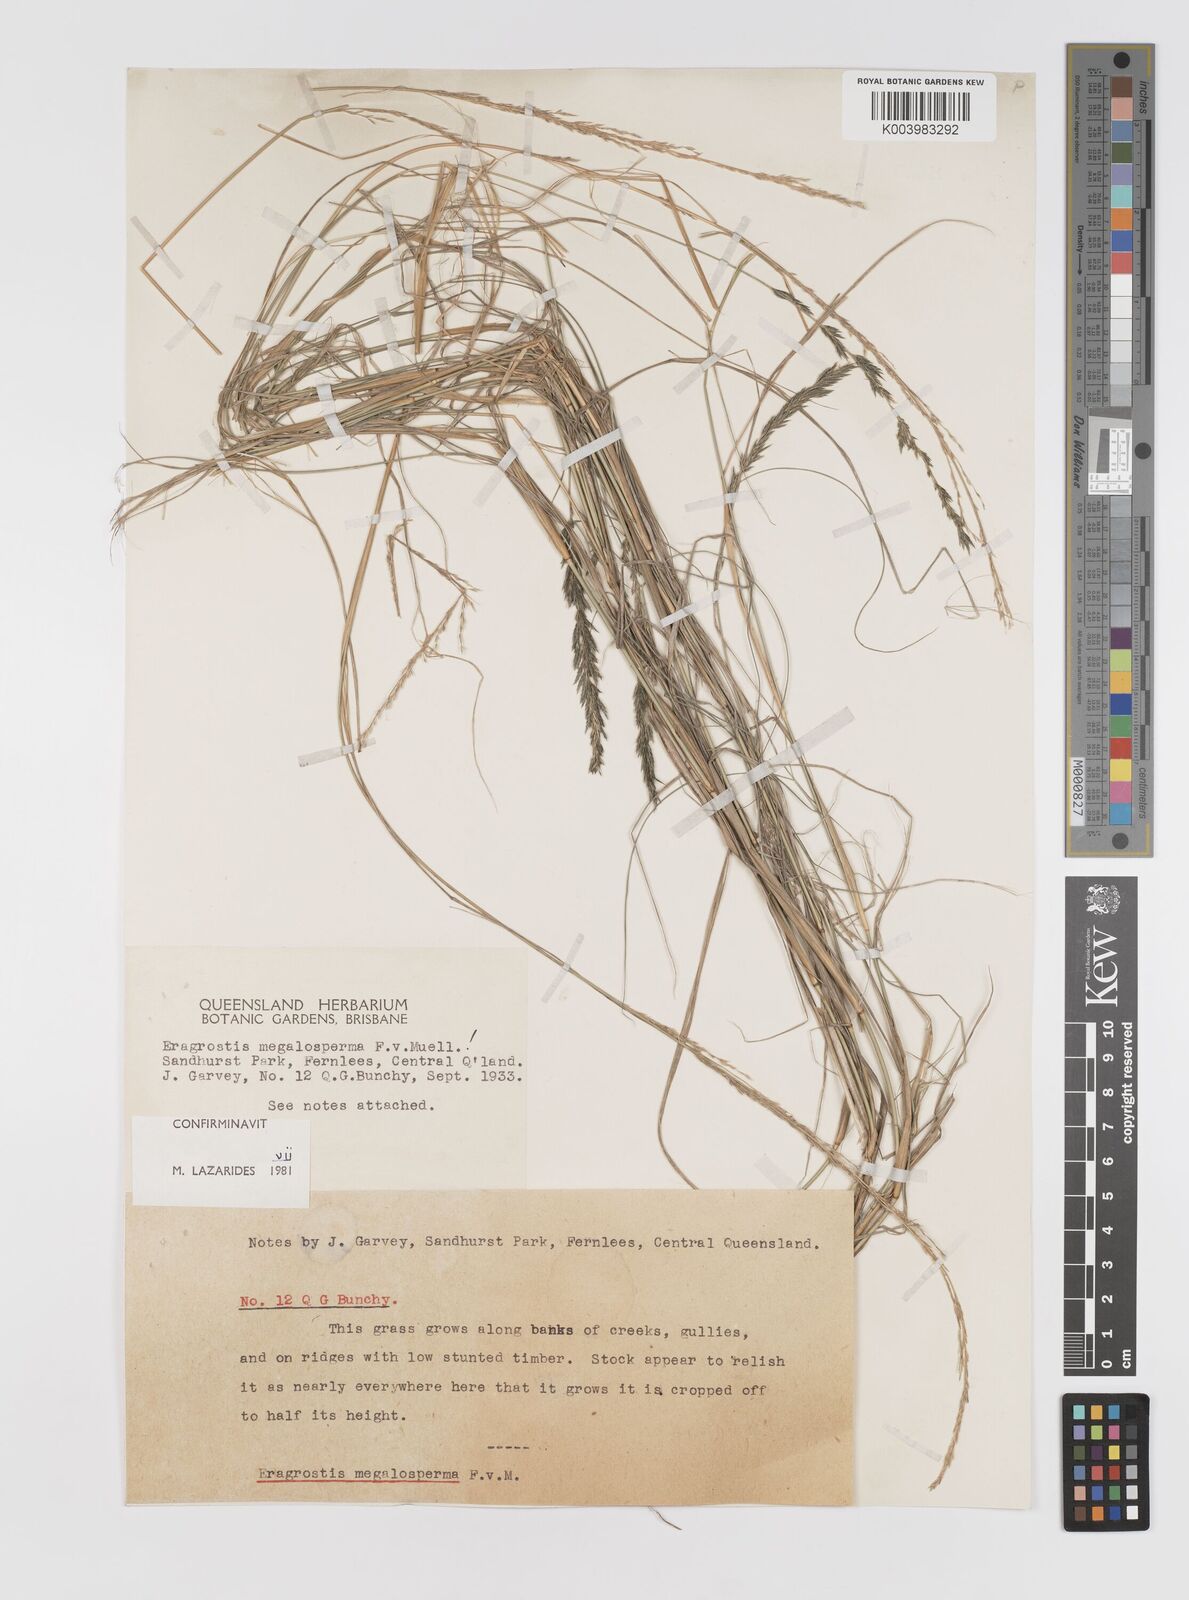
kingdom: Plantae
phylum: Tracheophyta
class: Liliopsida
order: Poales
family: Poaceae
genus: Sporobolus
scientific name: Sporobolus megalospermus
